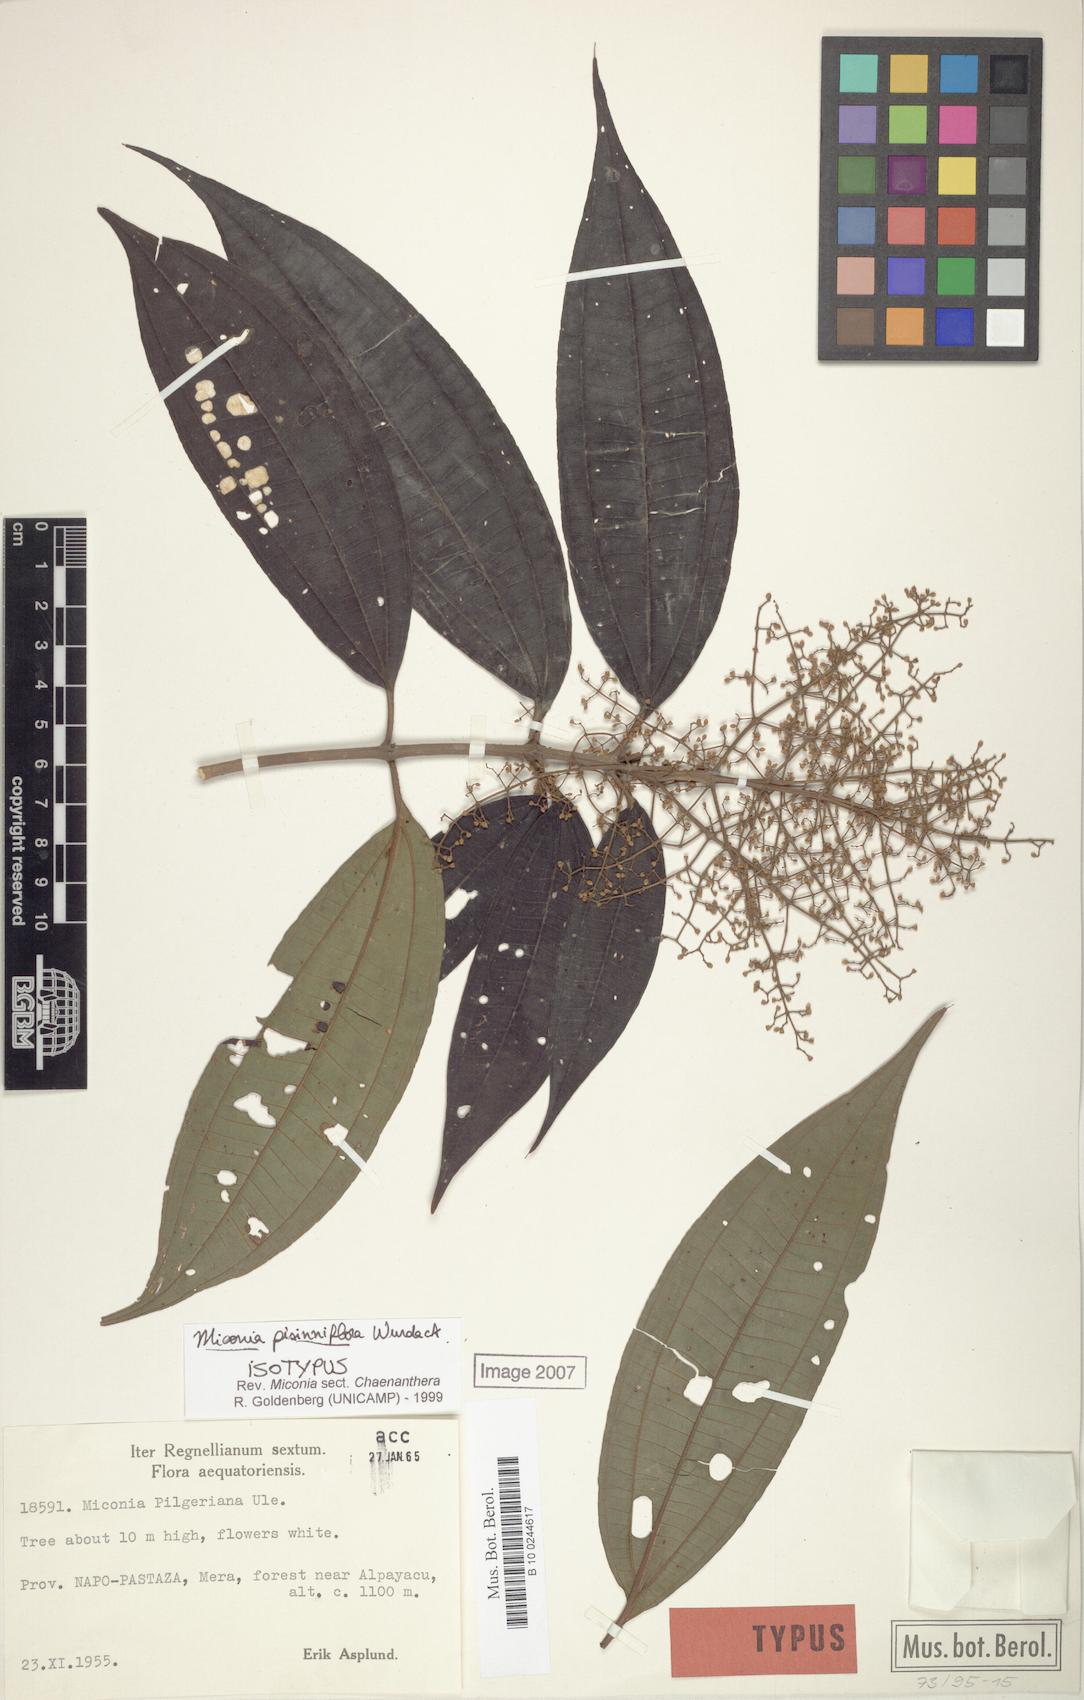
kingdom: Plantae
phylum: Tracheophyta
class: Magnoliopsida
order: Myrtales
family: Melastomataceae
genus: Miconia
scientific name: Miconia pisinniflora
